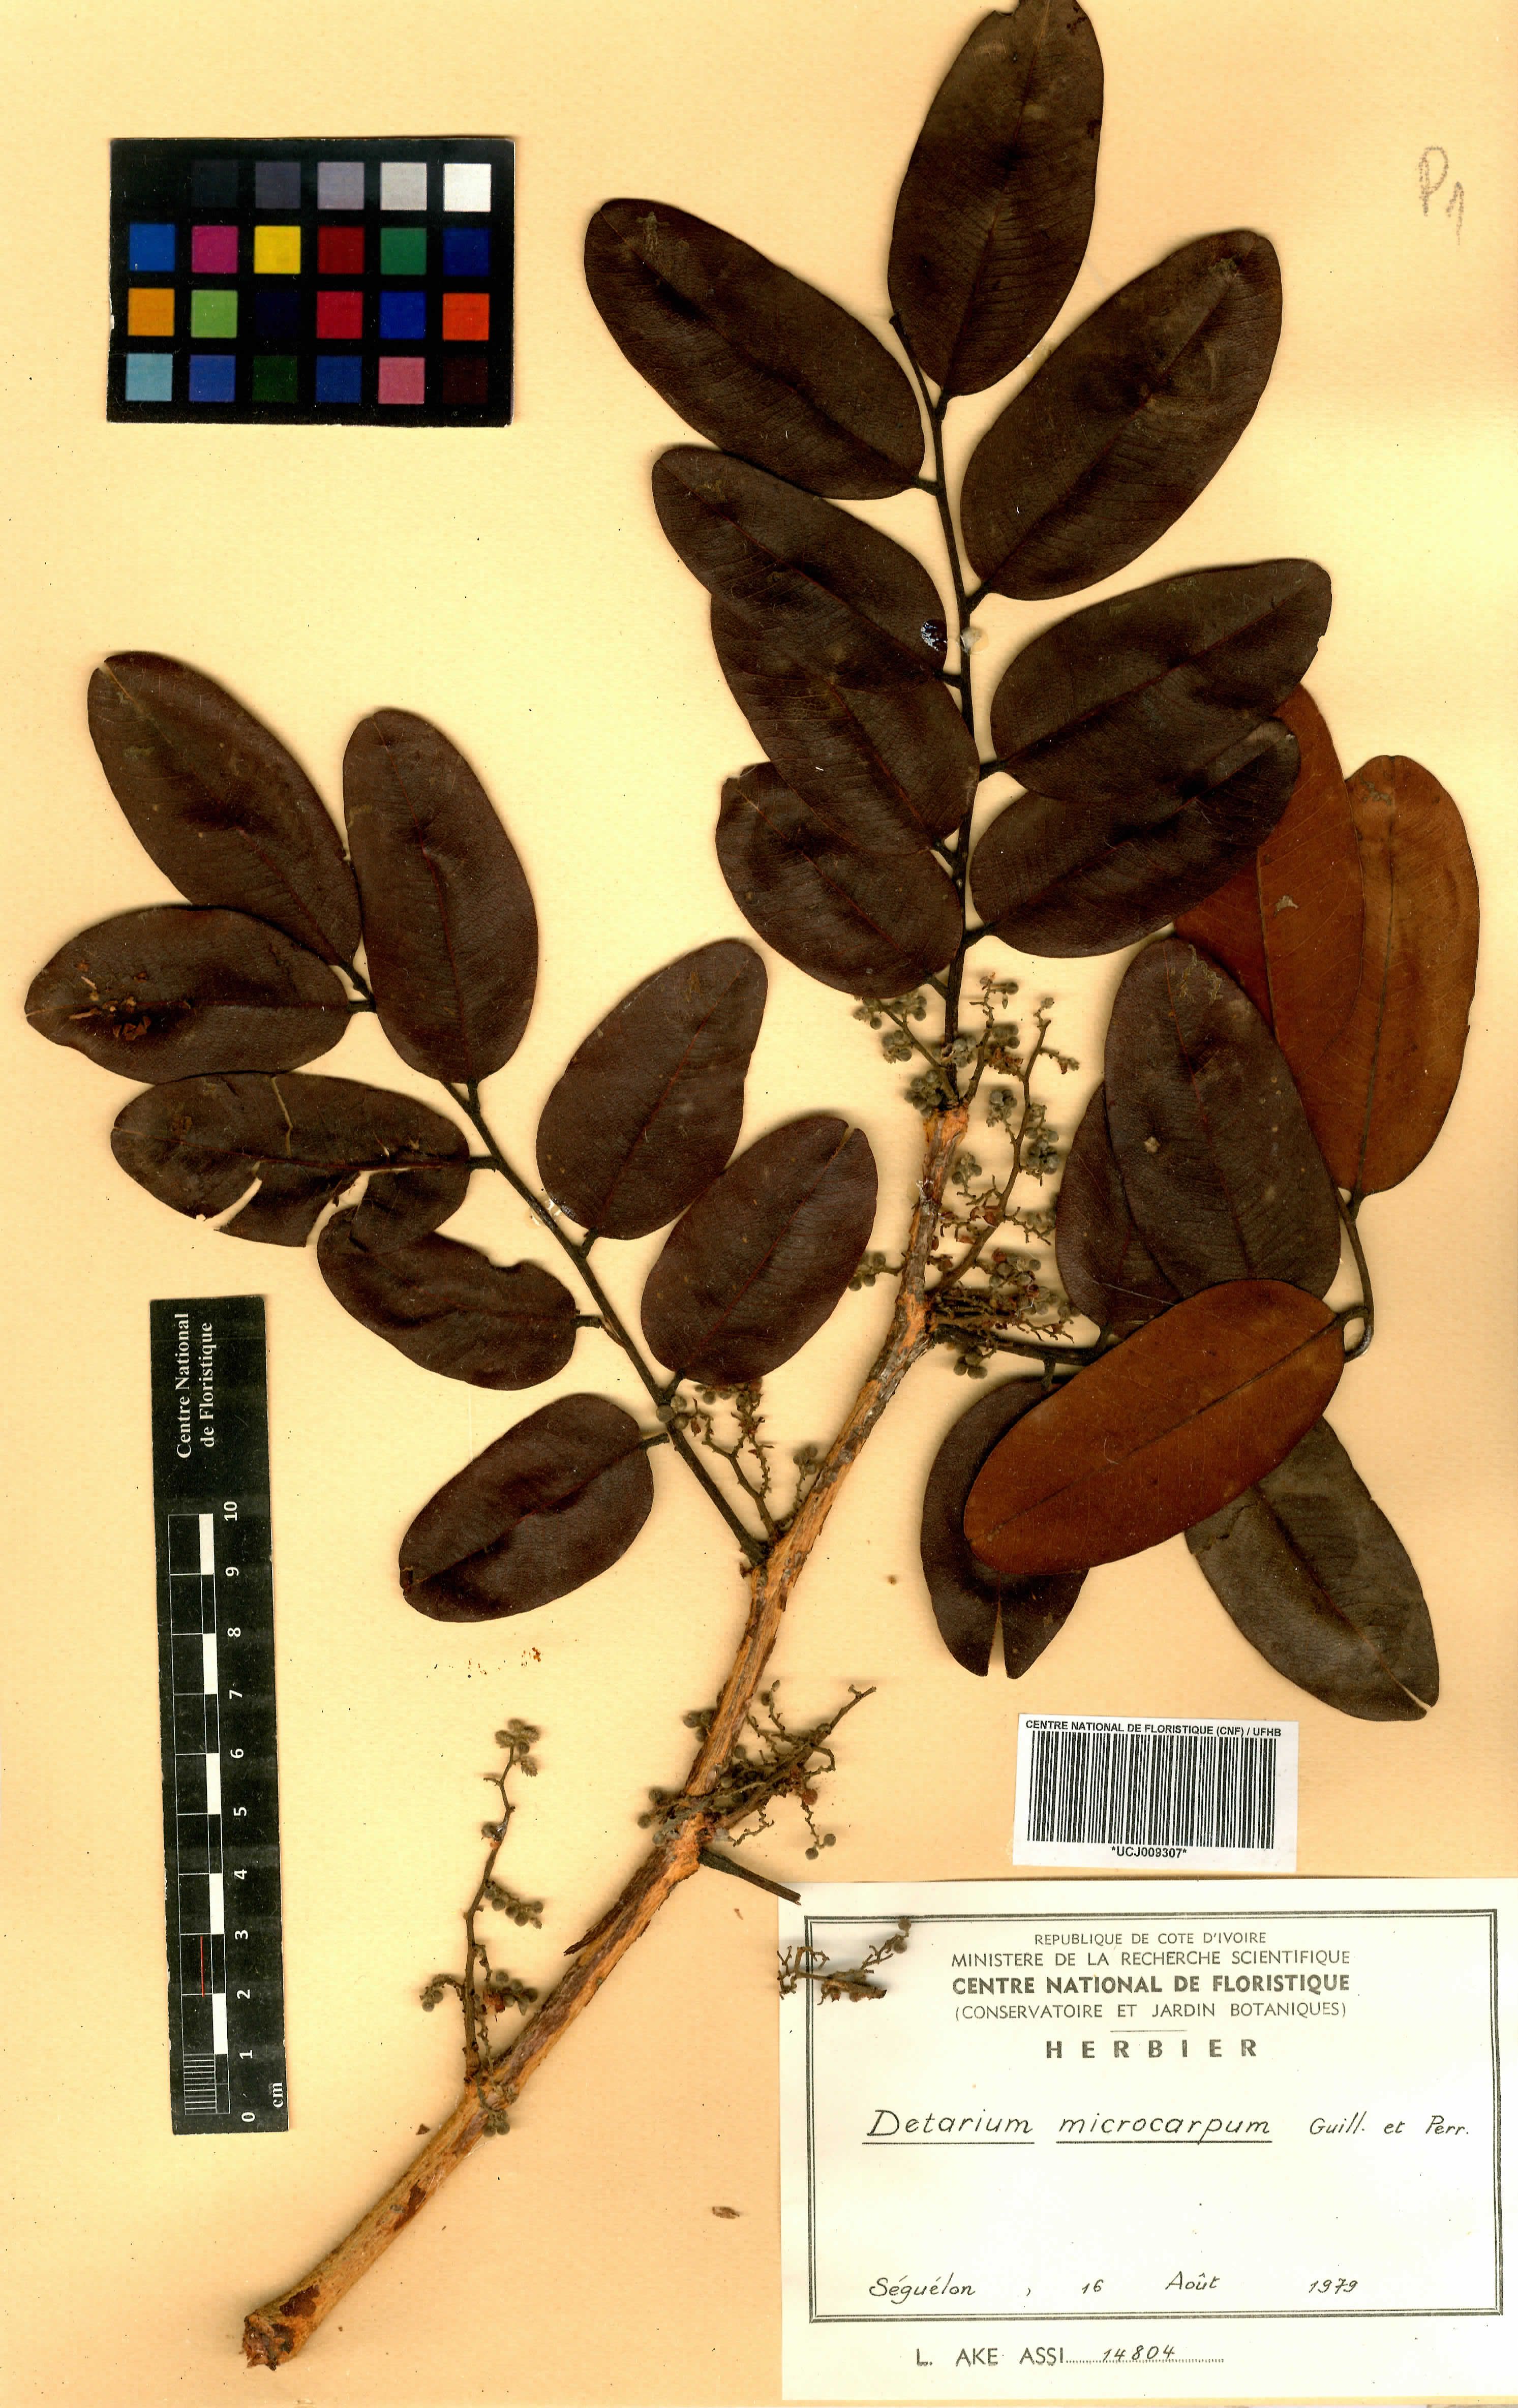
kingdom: Plantae
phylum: Tracheophyta
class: Magnoliopsida
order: Fabales
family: Fabaceae
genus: Detarium
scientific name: Detarium microcarpum
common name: Sweet dattock
